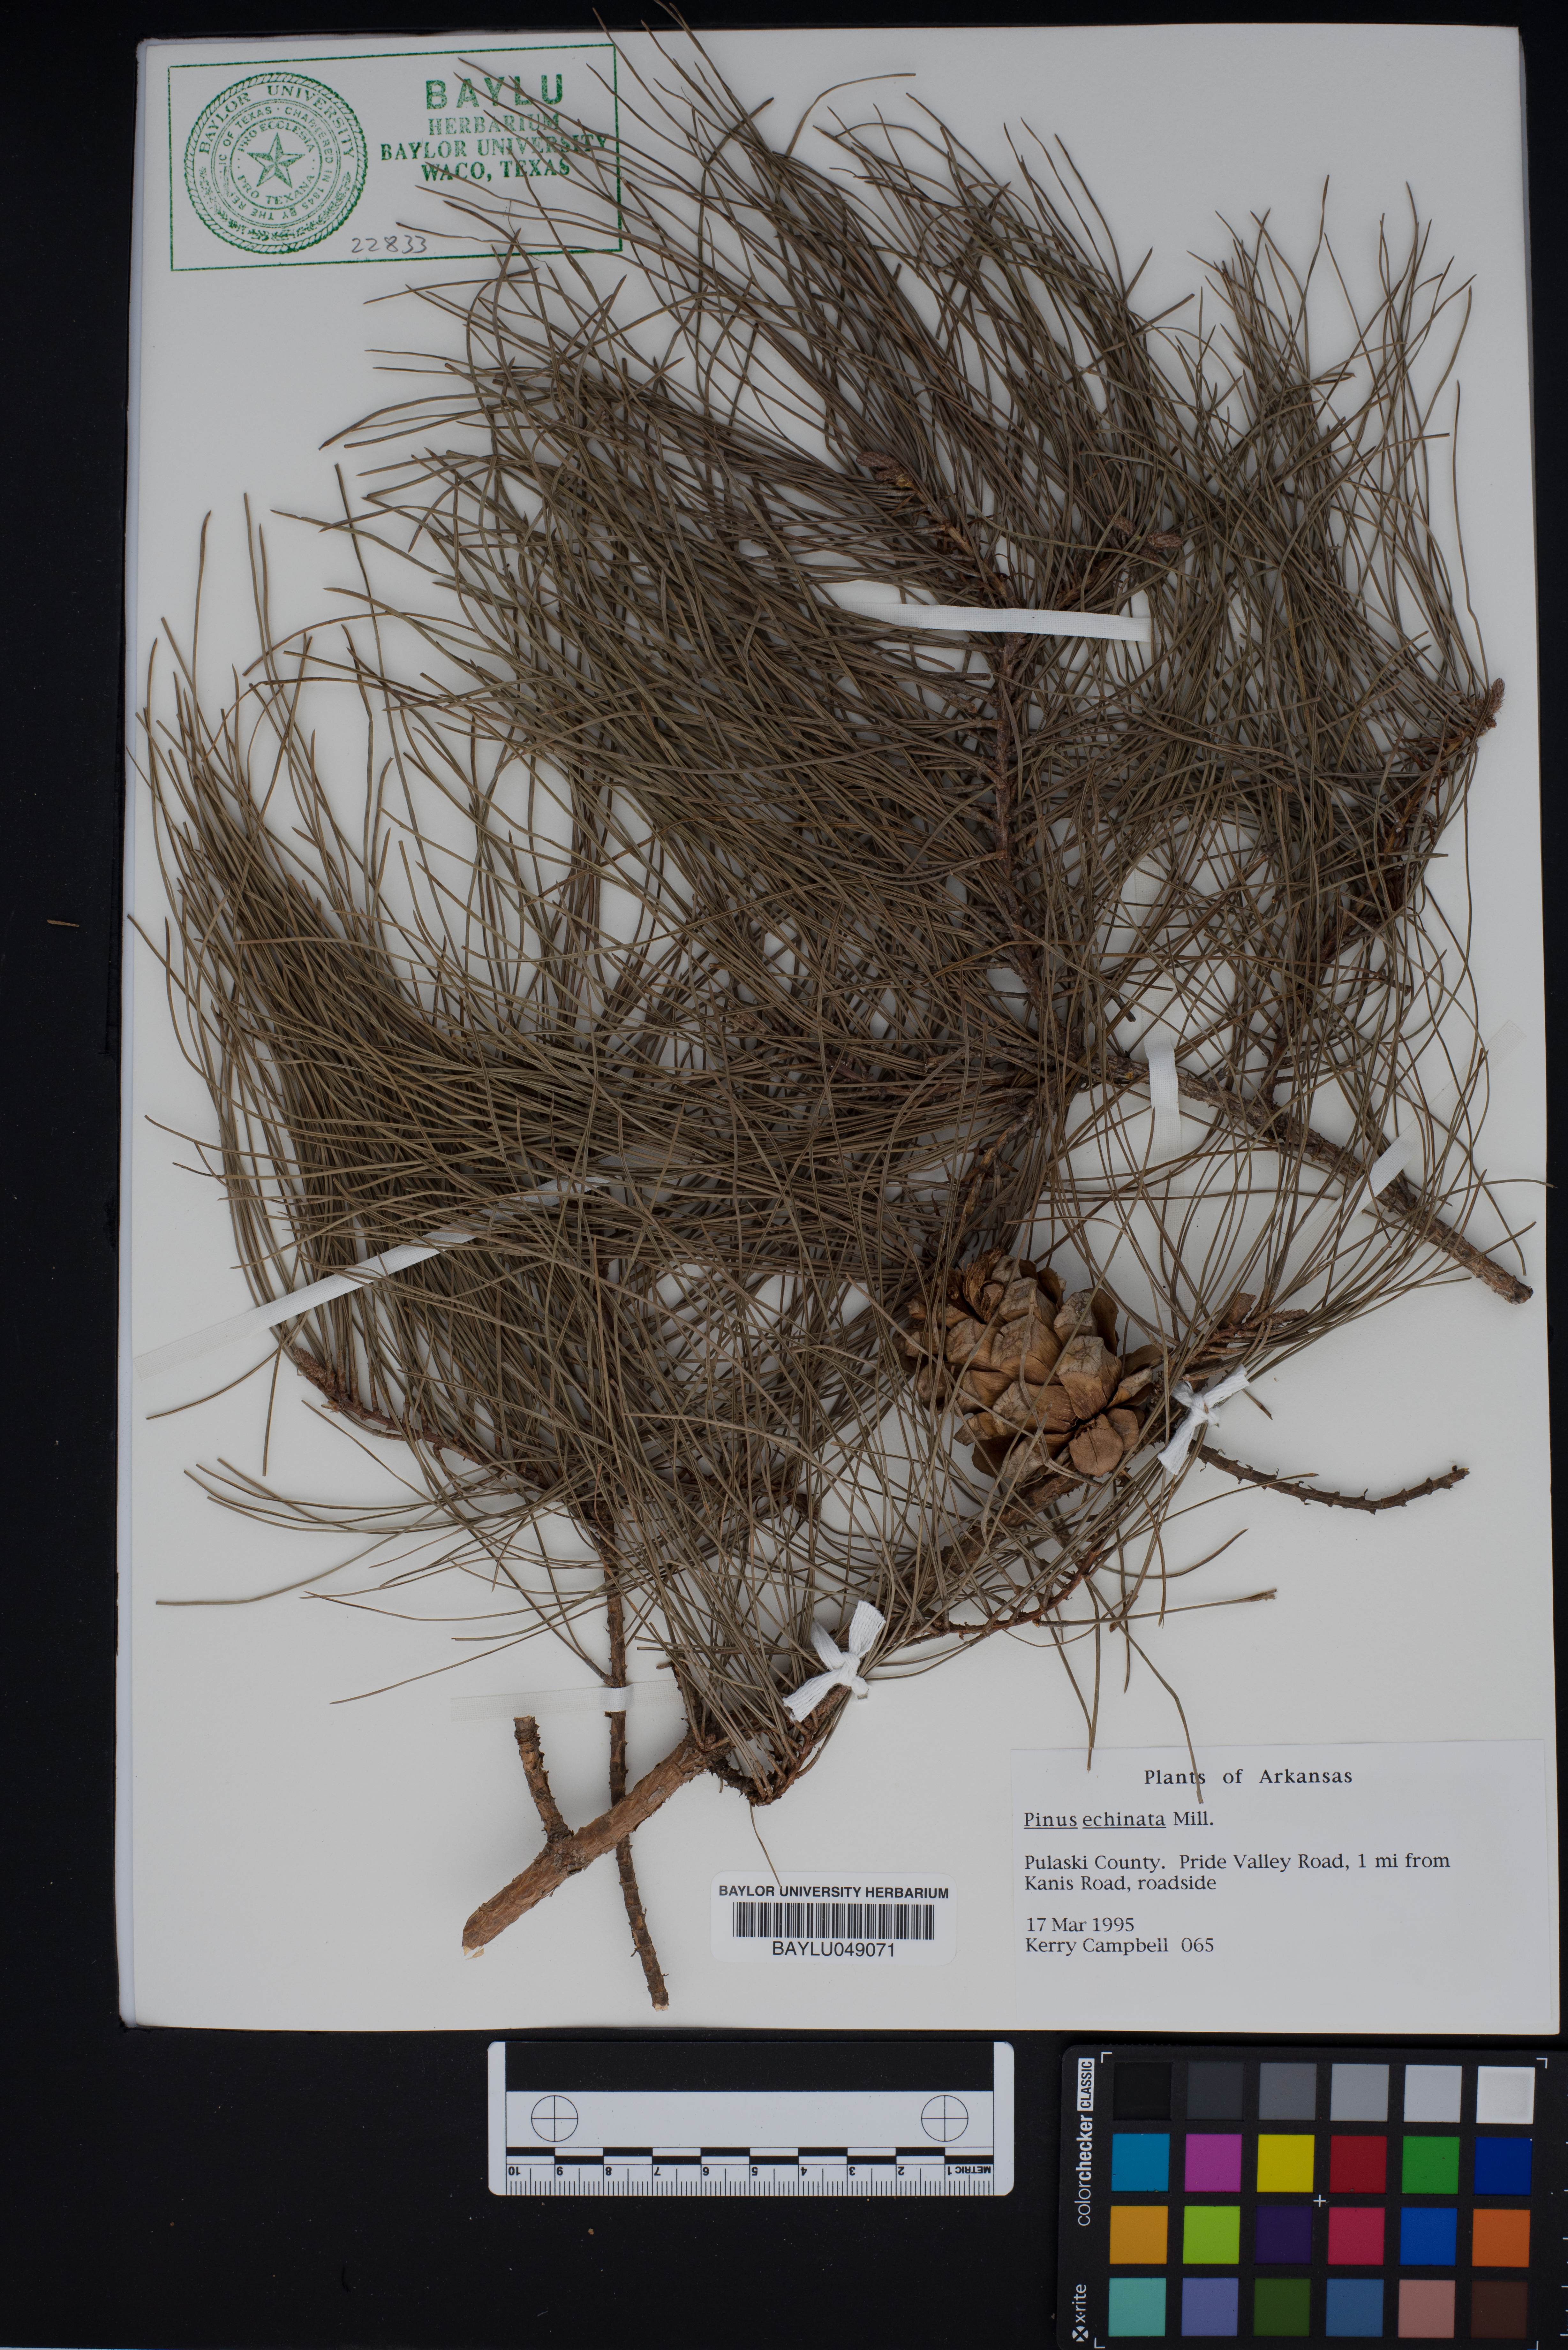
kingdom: Plantae
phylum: Tracheophyta
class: Pinopsida
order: Pinales
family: Pinaceae
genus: Pinus
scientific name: Pinus echinata
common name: Shortleaf pine
